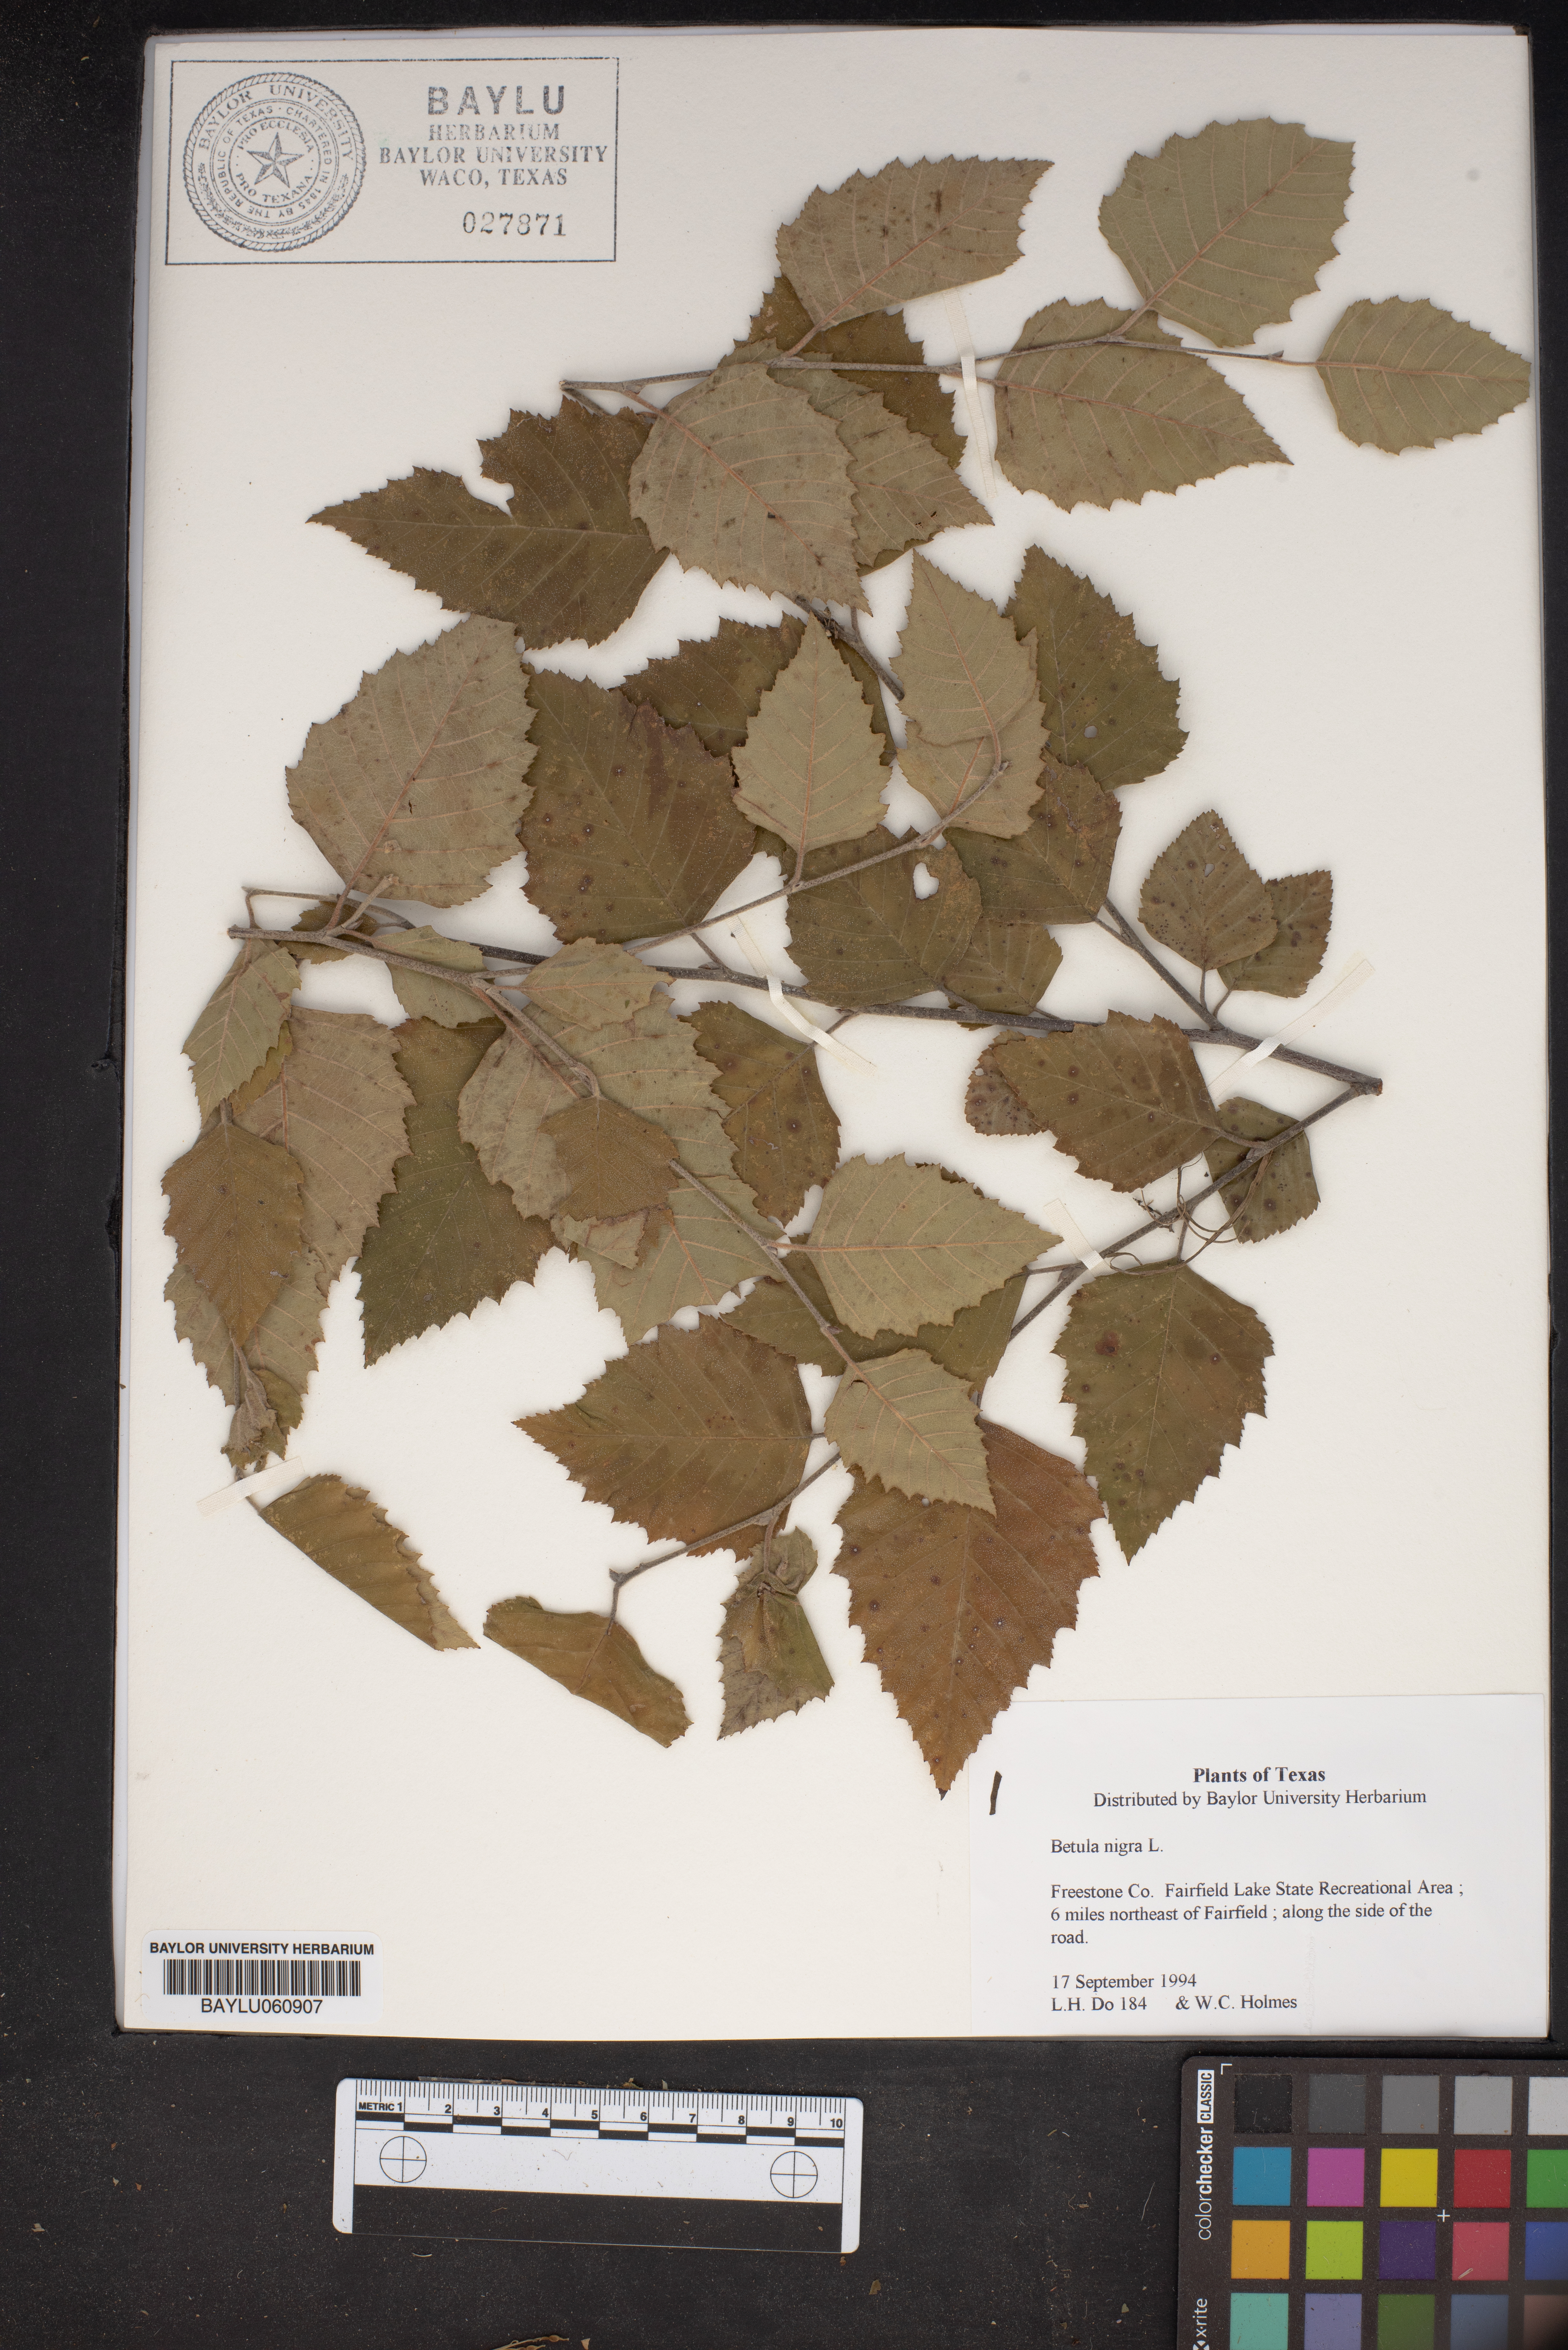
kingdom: Plantae
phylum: Tracheophyta
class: Magnoliopsida
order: Fagales
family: Betulaceae
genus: Betula
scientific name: Betula nigra
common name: Black birch
